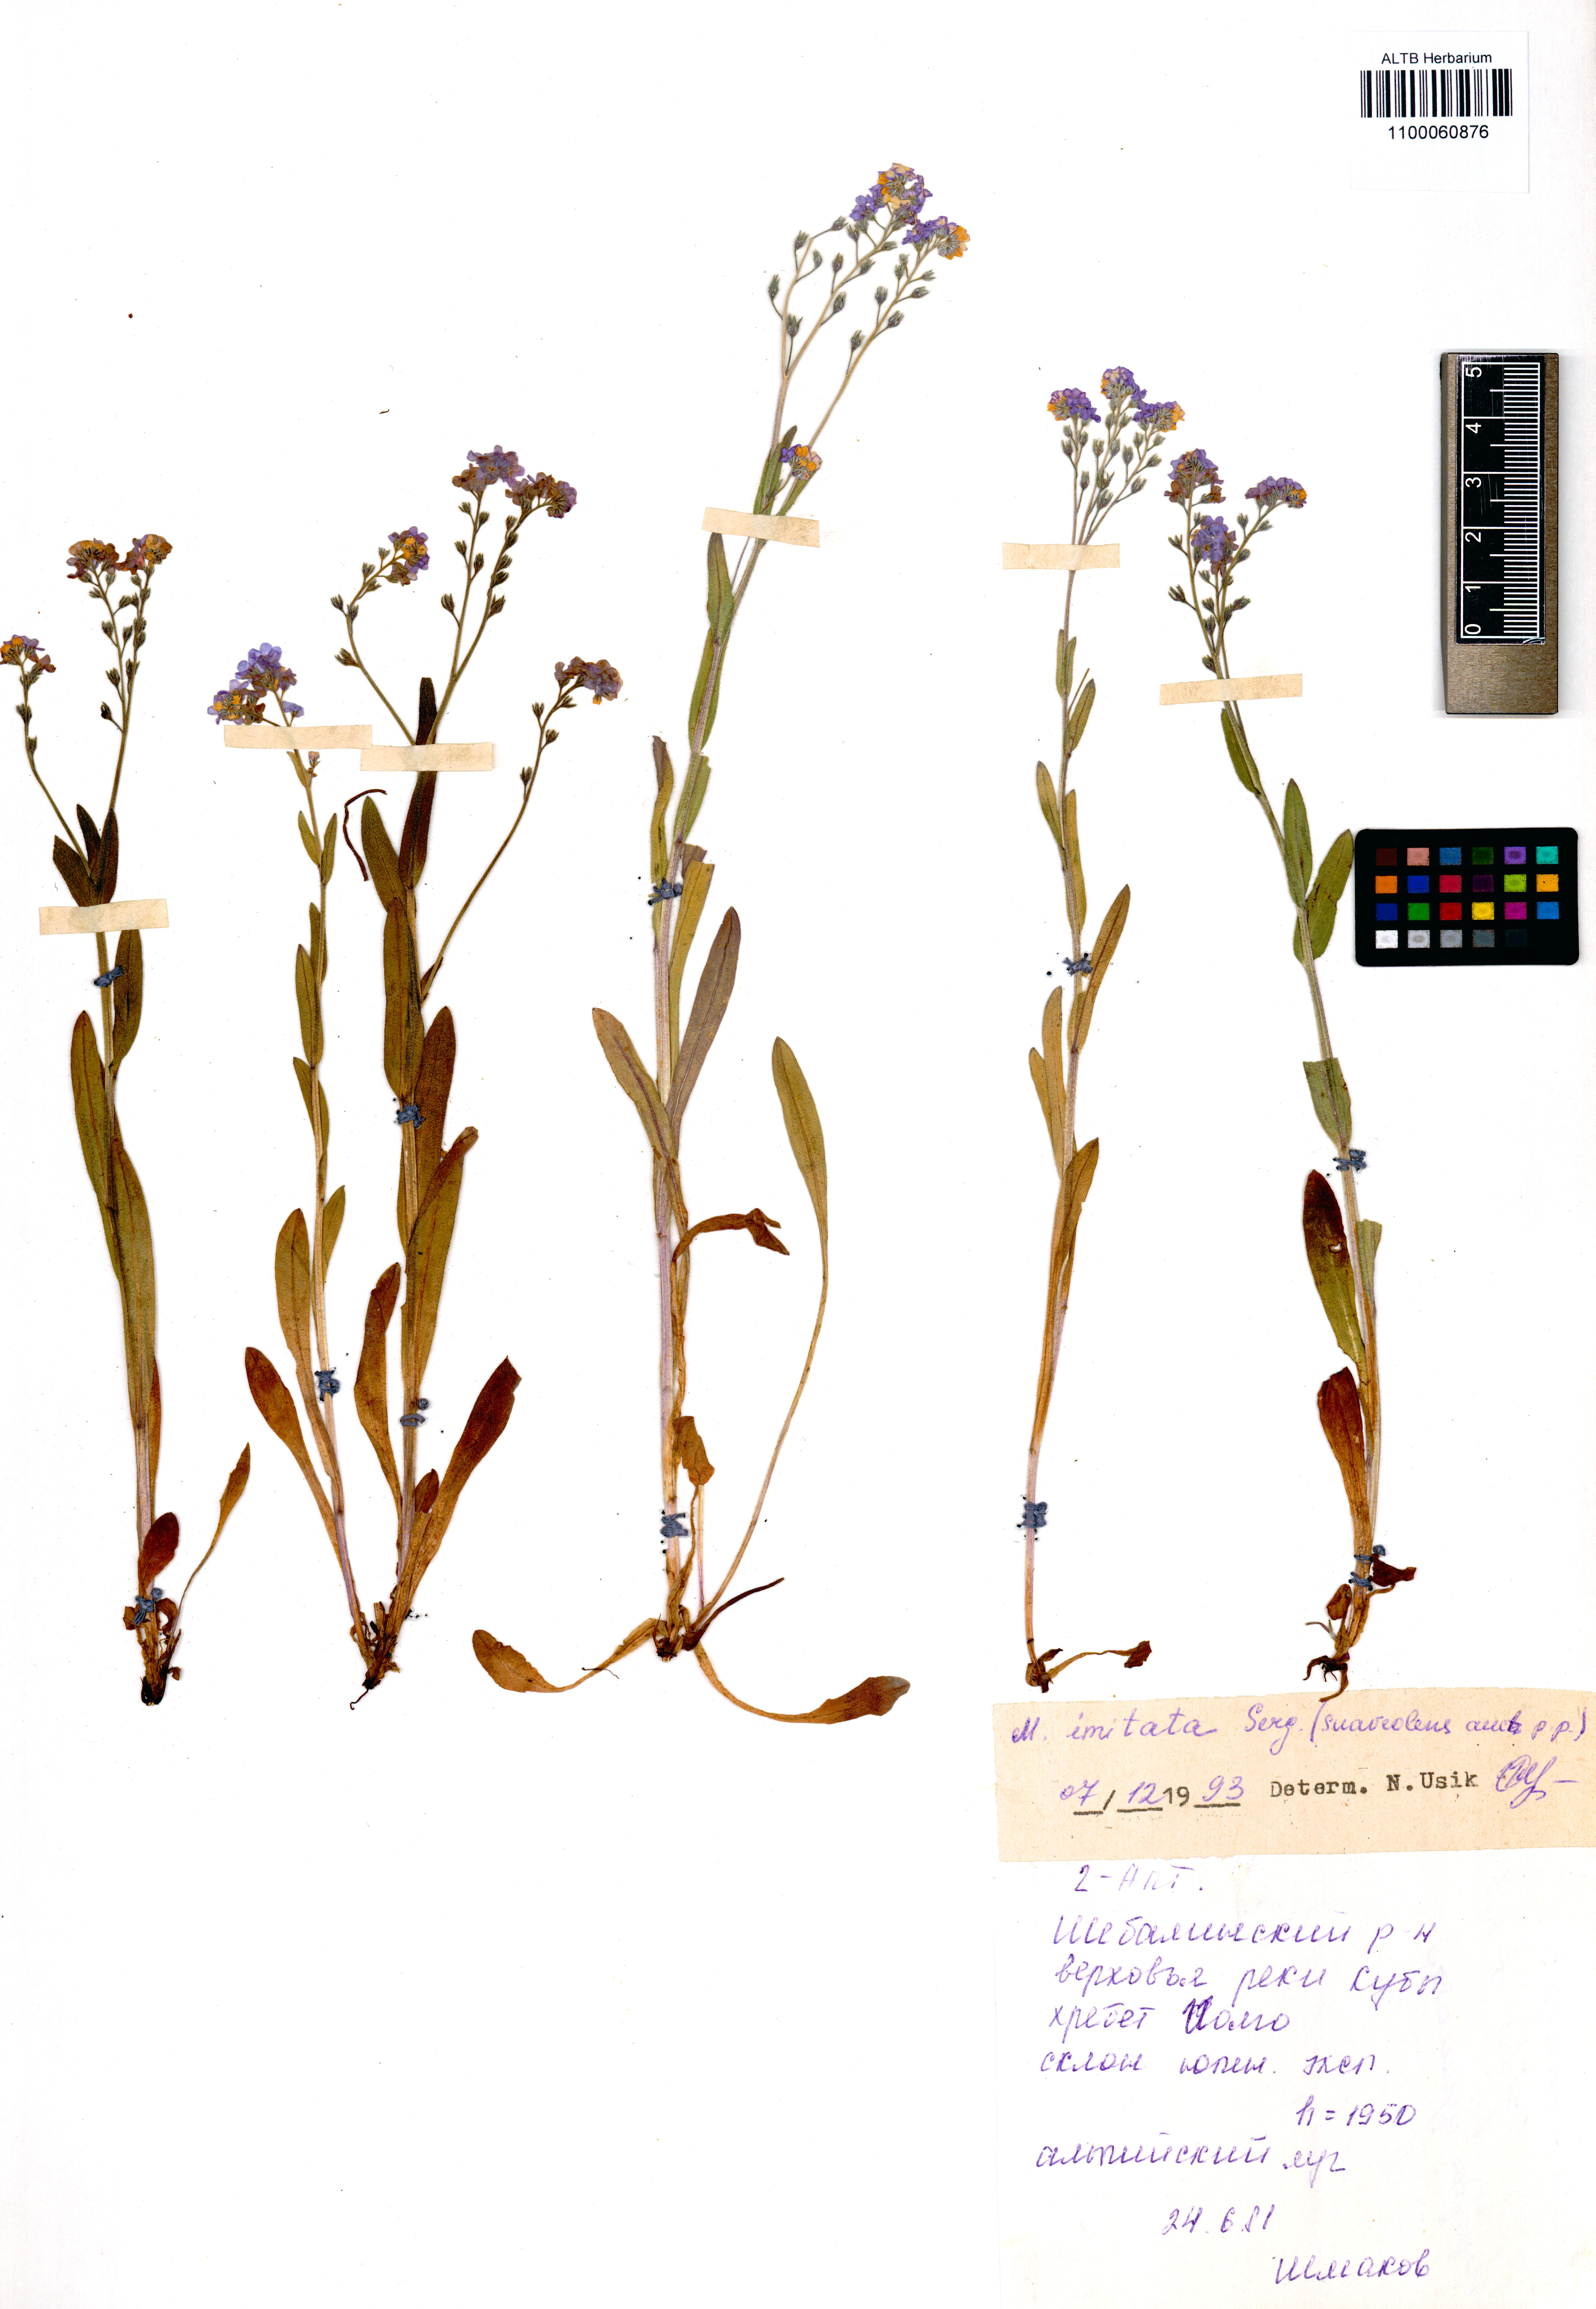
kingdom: Plantae
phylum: Tracheophyta
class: Magnoliopsida
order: Boraginales
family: Boraginaceae
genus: Myosotis
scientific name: Myosotis imitata
